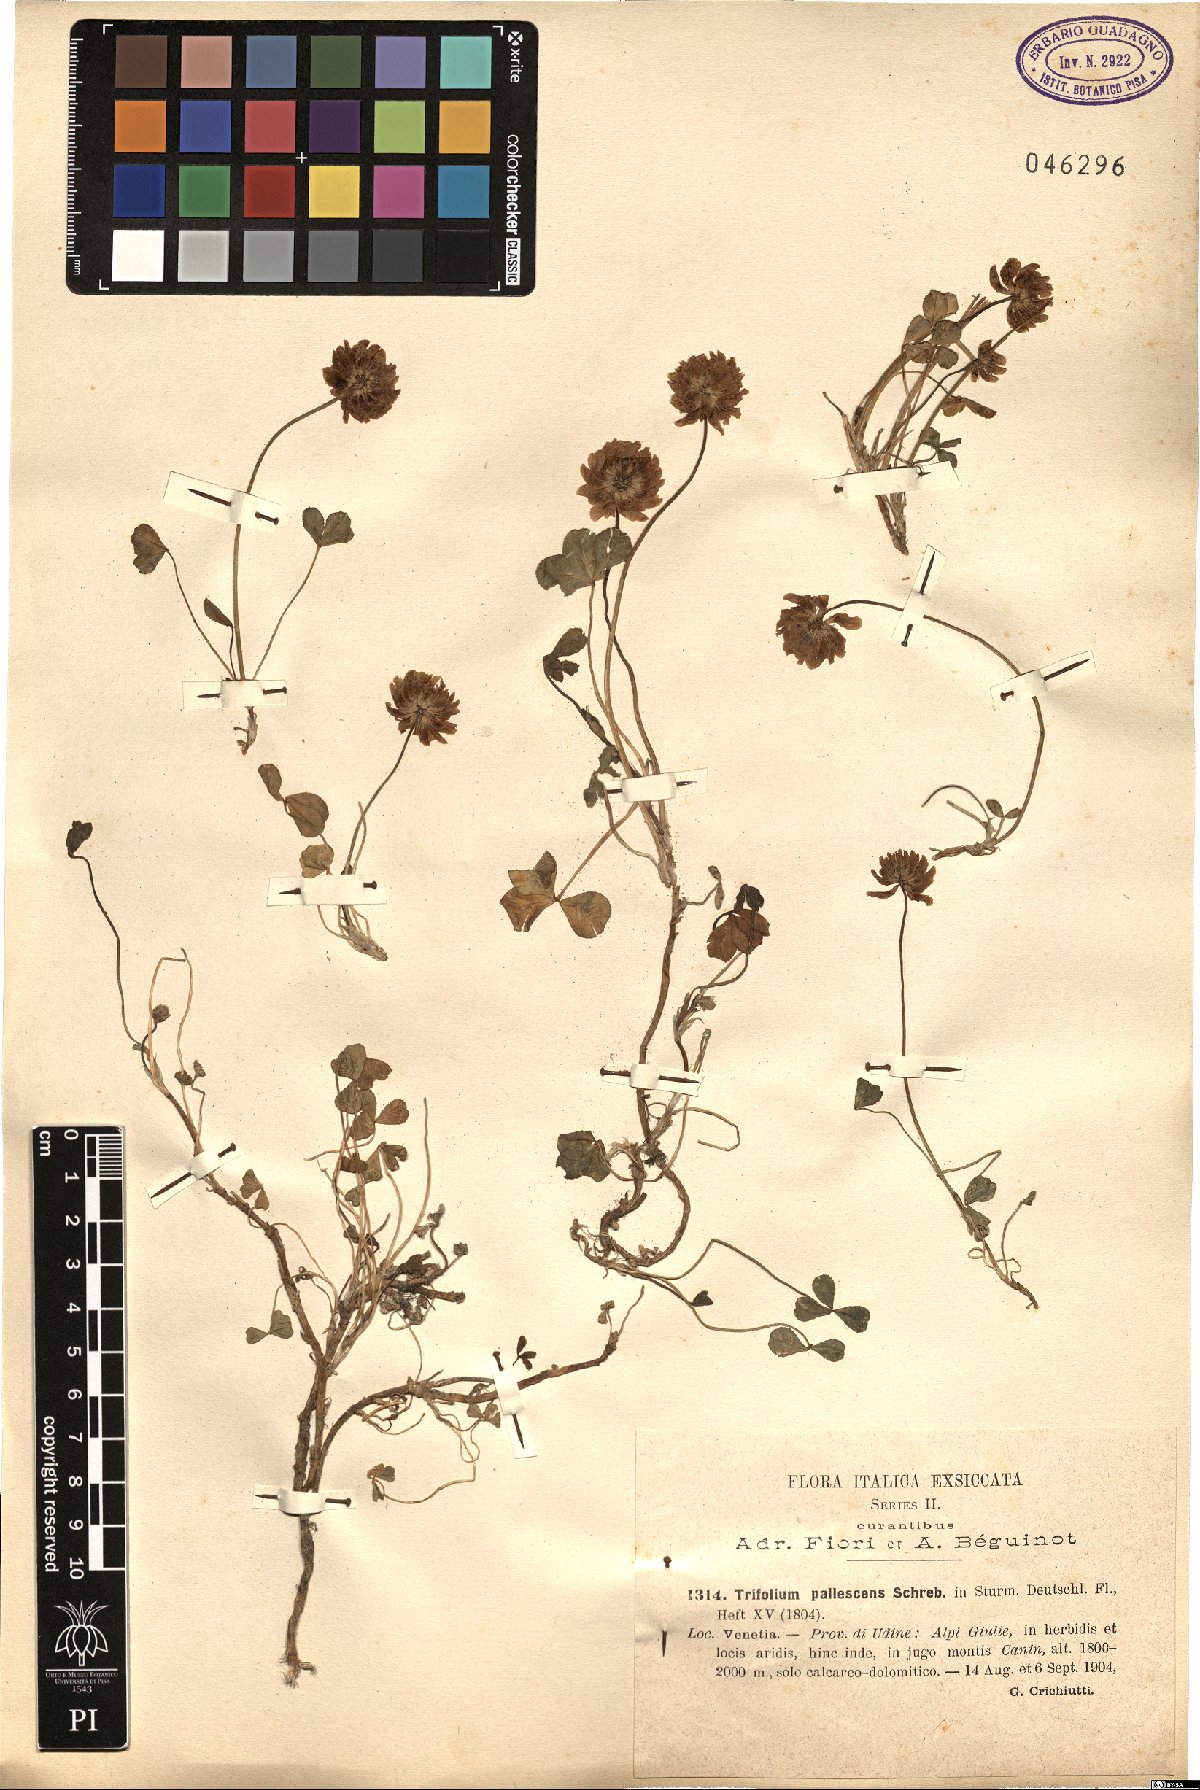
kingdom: Plantae
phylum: Tracheophyta
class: Magnoliopsida
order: Fabales
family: Fabaceae
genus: Trifolium
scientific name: Trifolium pallescens
